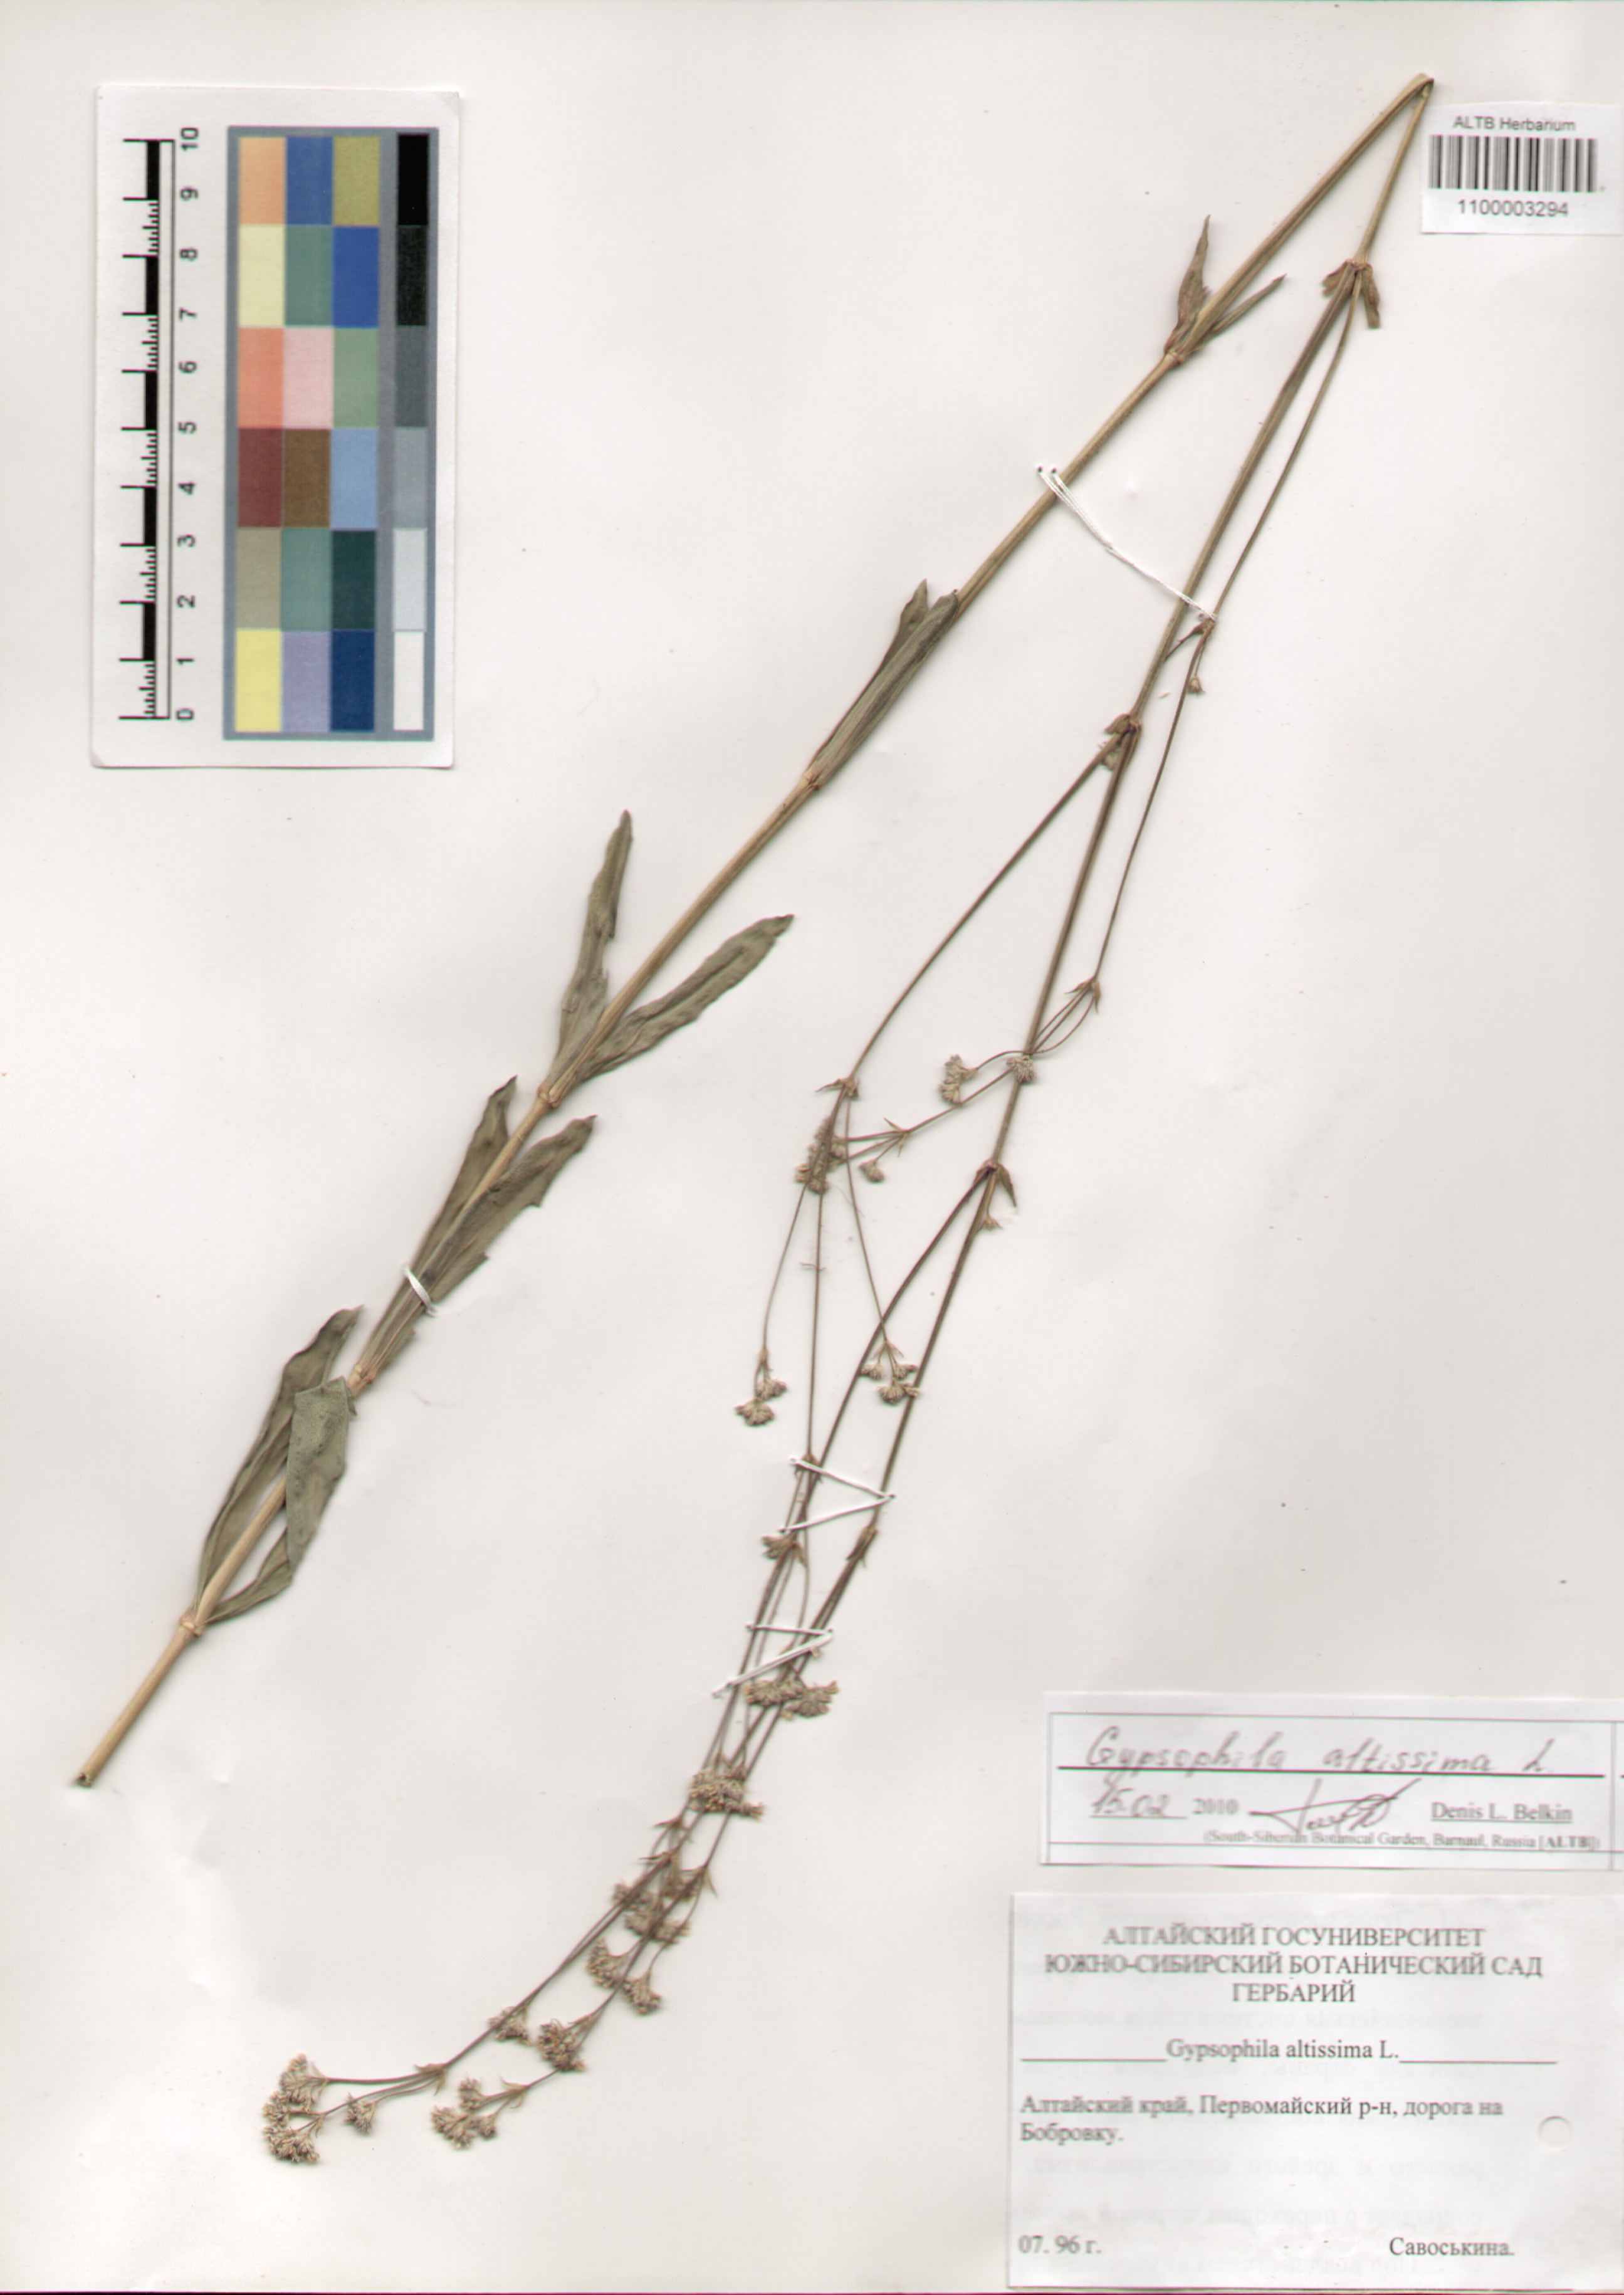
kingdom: Plantae
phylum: Tracheophyta
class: Magnoliopsida
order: Caryophyllales
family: Caryophyllaceae
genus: Gypsophila
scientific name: Gypsophila altissima
